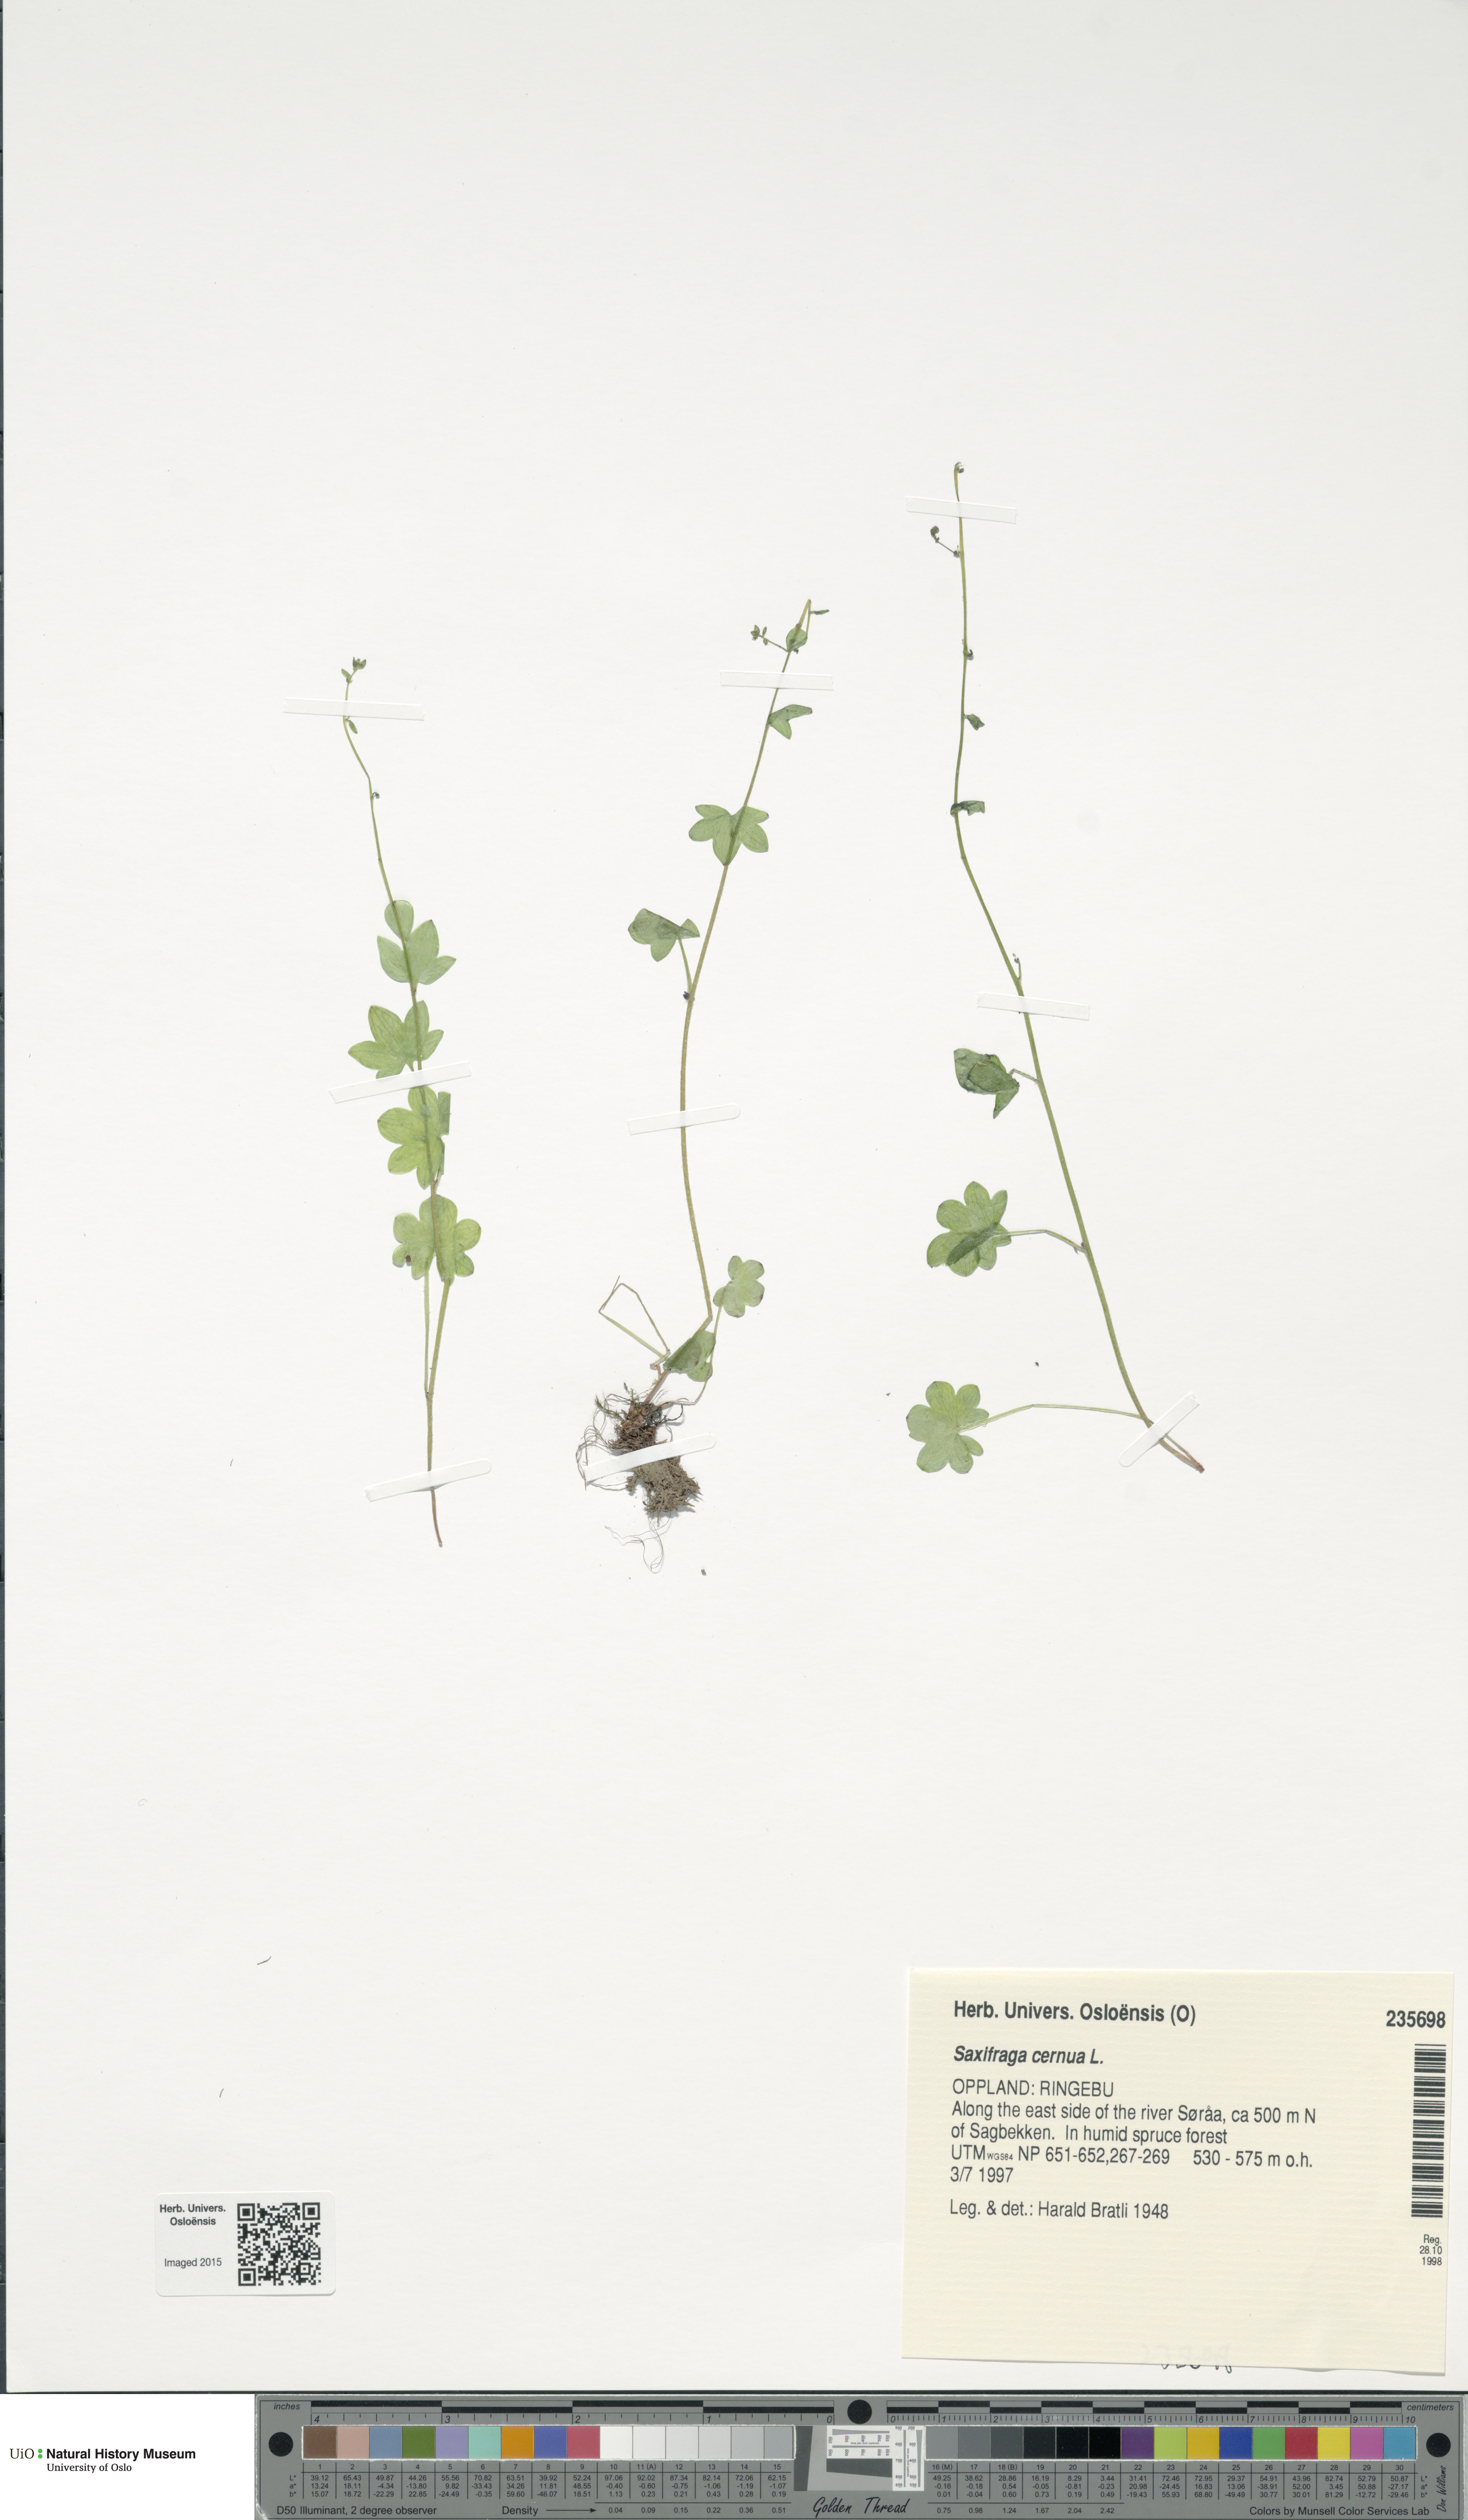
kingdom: Plantae
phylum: Tracheophyta
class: Magnoliopsida
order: Saxifragales
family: Saxifragaceae
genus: Saxifraga
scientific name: Saxifraga cernua
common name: Drooping saxifrage
